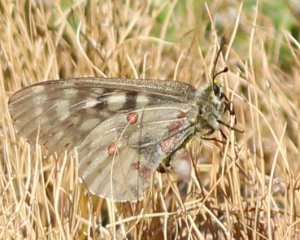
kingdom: Animalia
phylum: Arthropoda
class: Insecta
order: Lepidoptera
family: Papilionidae
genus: Parnassius
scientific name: Parnassius clodius
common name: Clodius Parnassian
